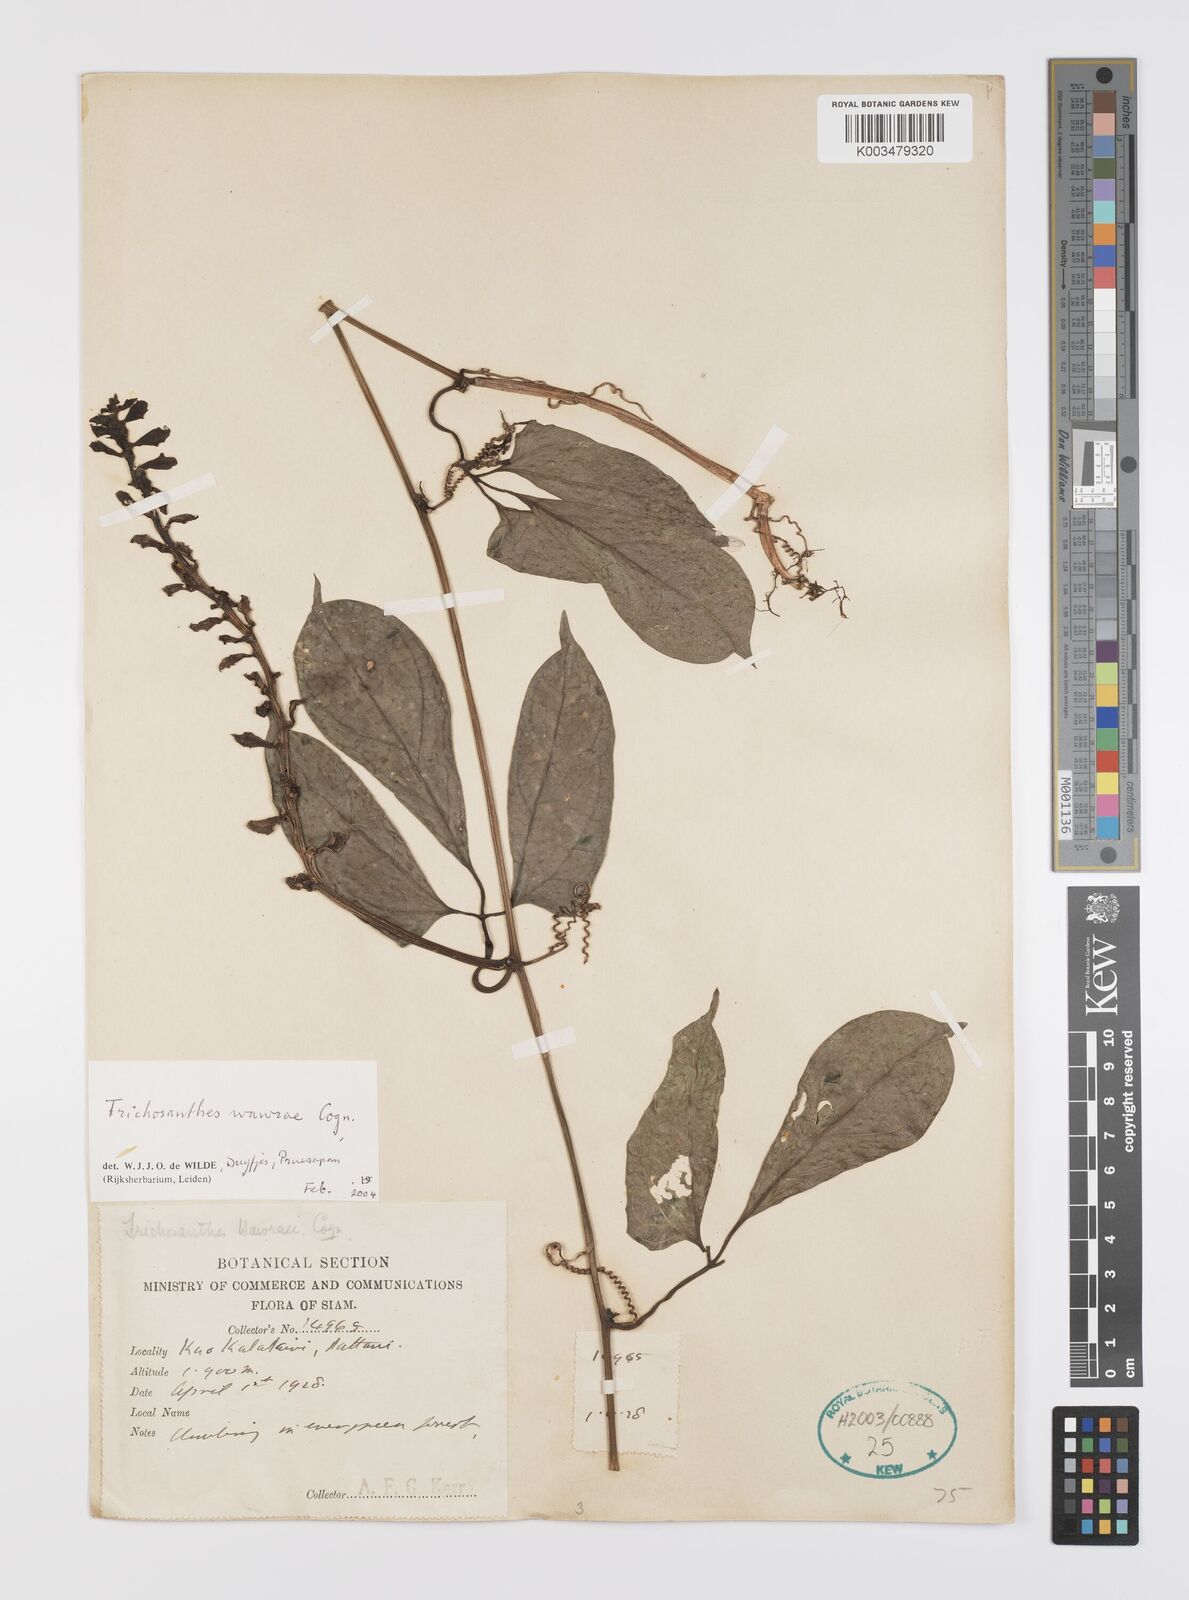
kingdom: Plantae
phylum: Tracheophyta
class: Magnoliopsida
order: Cucurbitales
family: Cucurbitaceae
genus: Trichosanthes
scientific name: Trichosanthes wawrae
